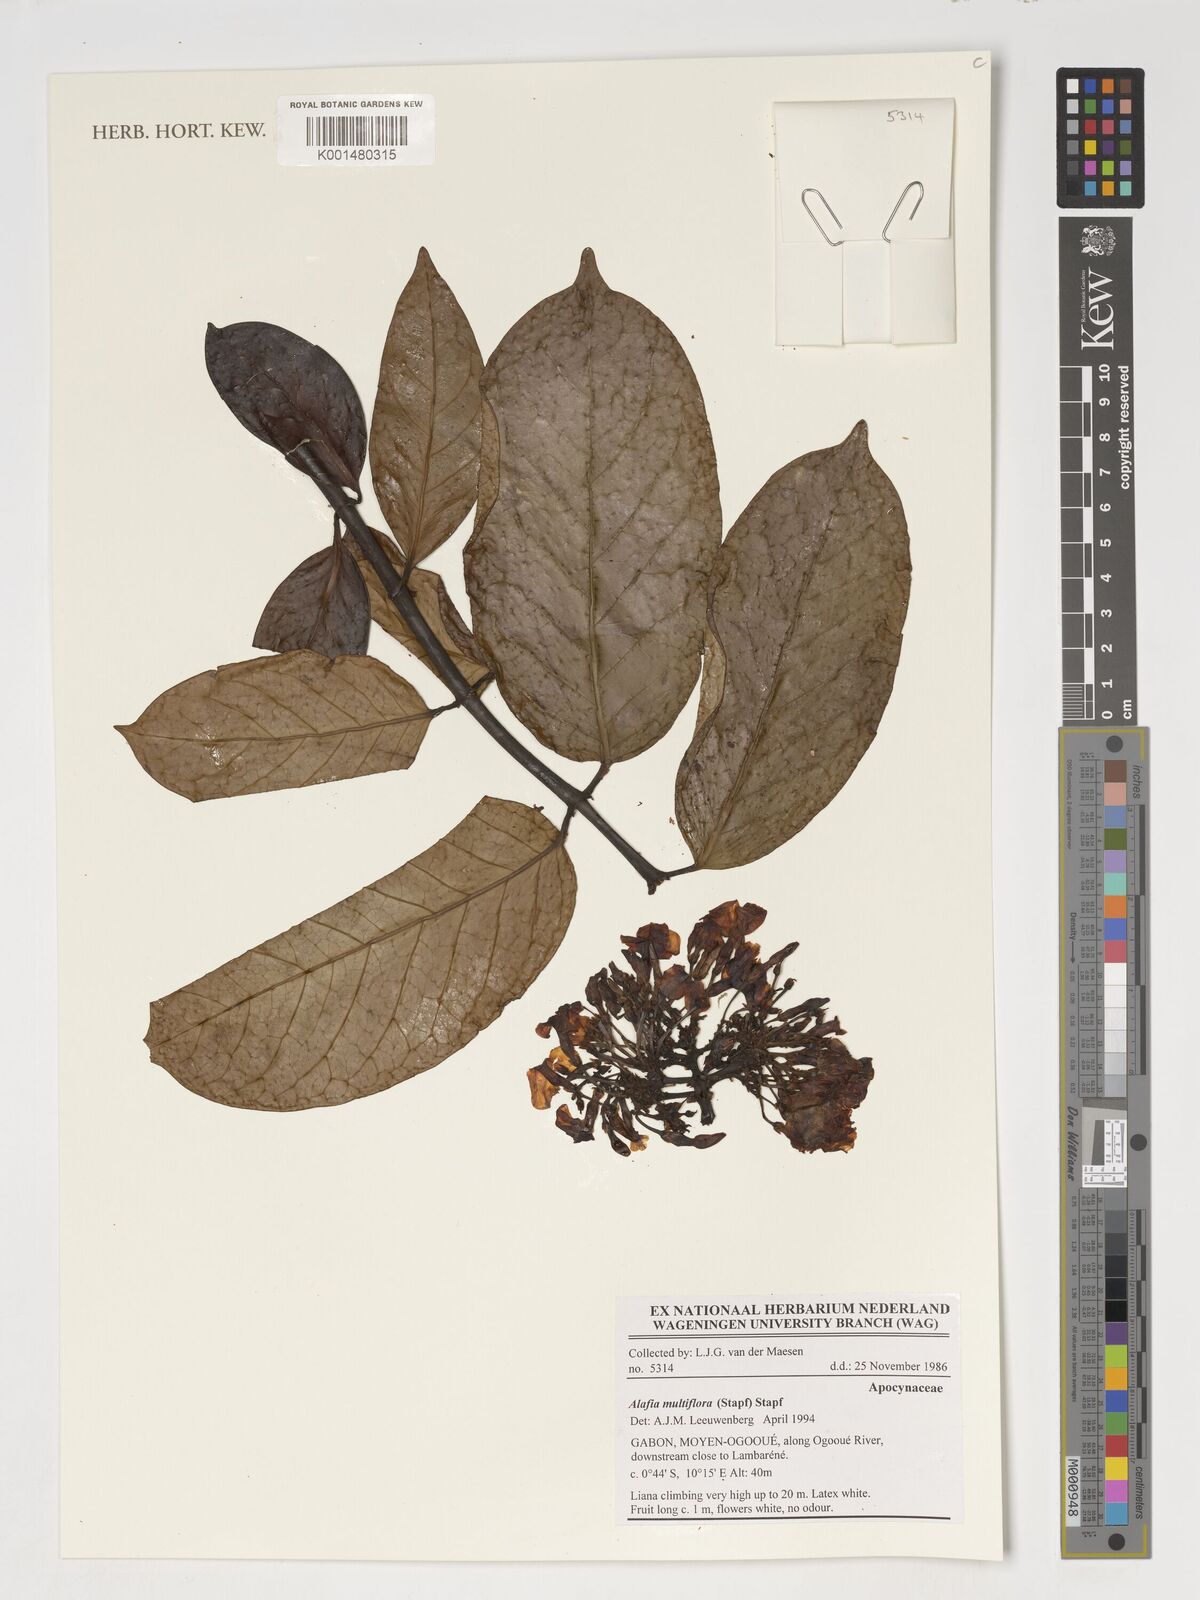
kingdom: Plantae
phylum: Tracheophyta
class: Magnoliopsida
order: Gentianales
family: Apocynaceae
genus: Alafia
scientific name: Alafia multiflora
